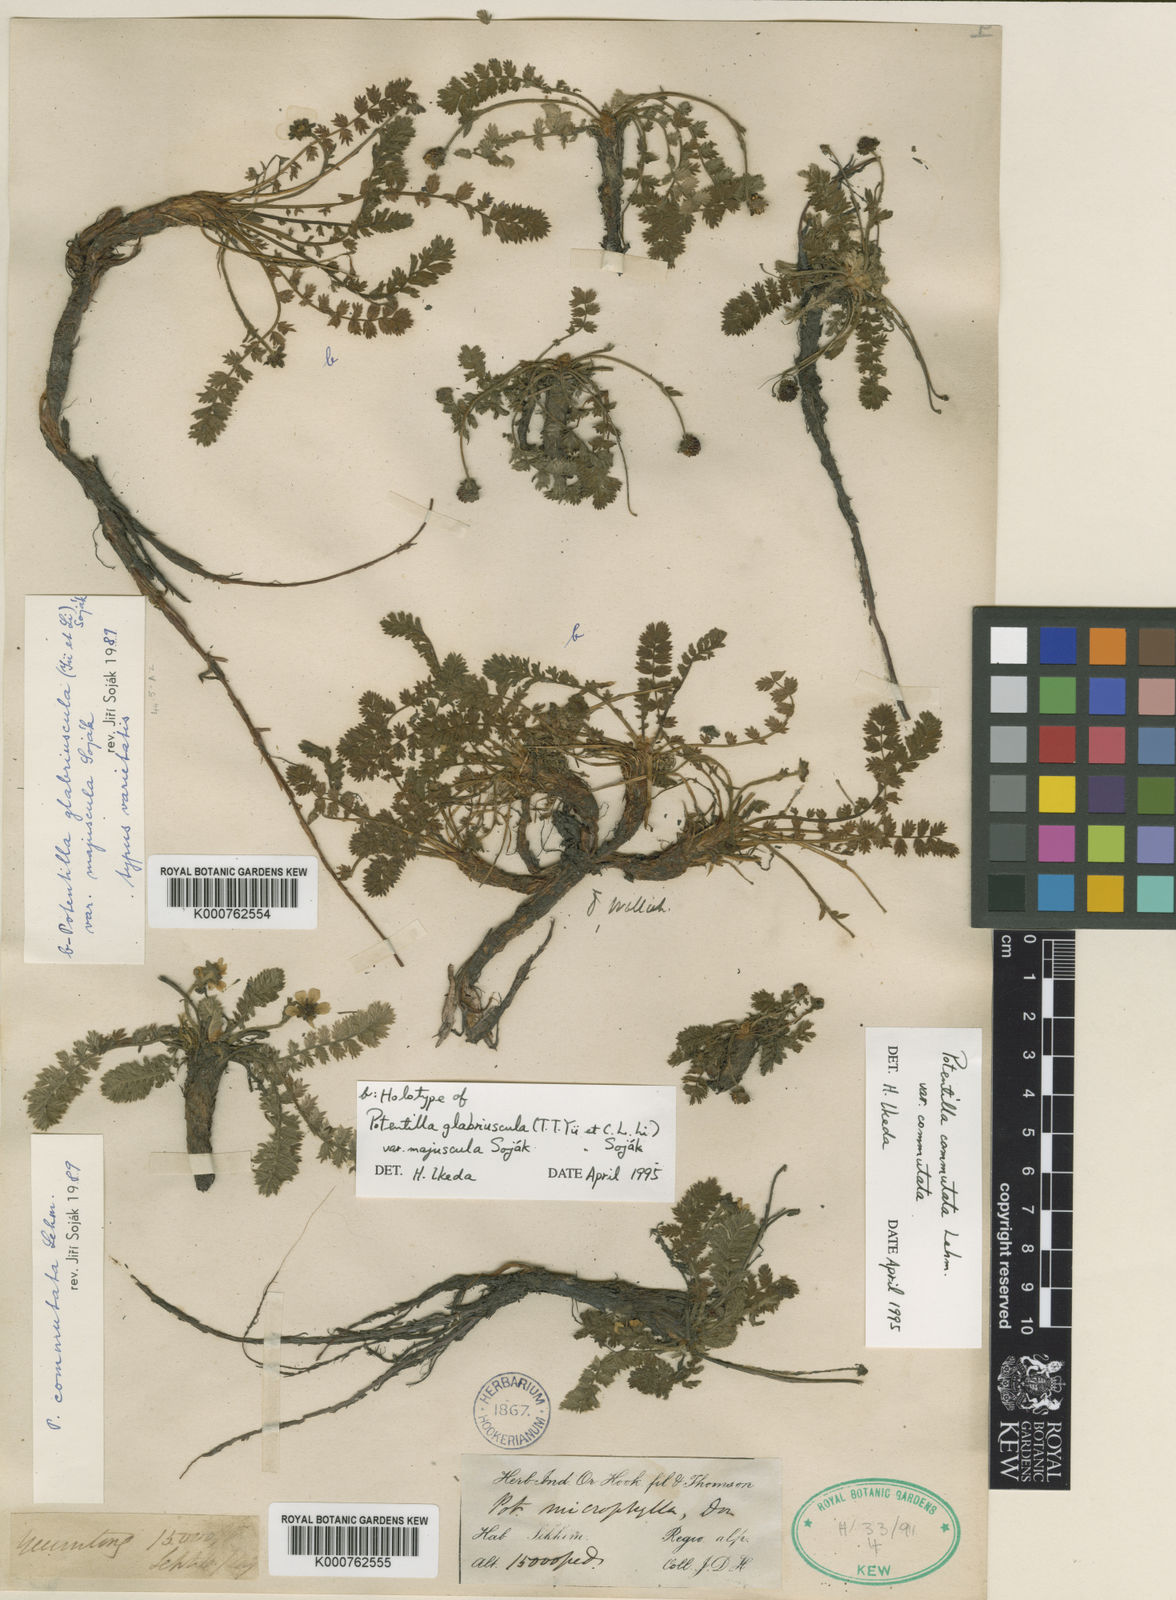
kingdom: Plantae
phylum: Tracheophyta
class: Magnoliopsida
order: Rosales
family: Rosaceae
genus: Potentilla
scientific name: Potentilla
